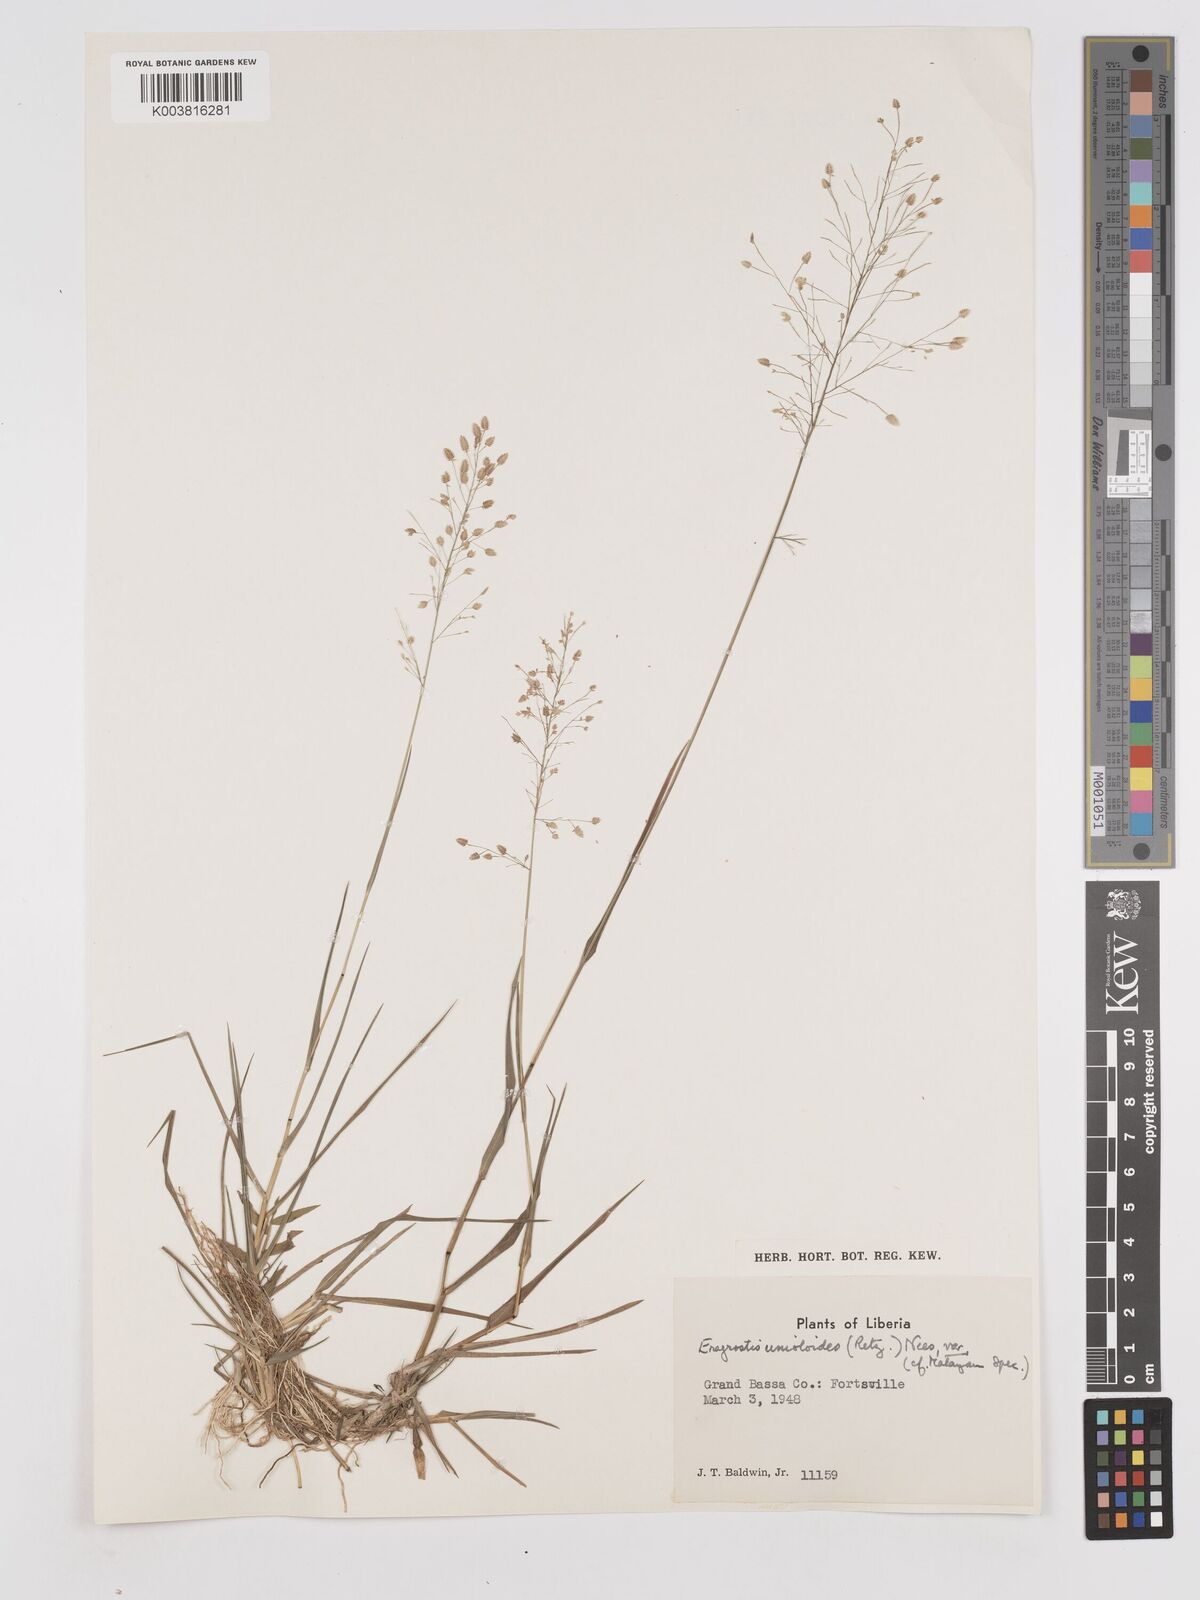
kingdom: Plantae
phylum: Tracheophyta
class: Liliopsida
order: Poales
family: Poaceae
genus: Eragrostis
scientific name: Eragrostis unioloides
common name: Chinese lovegrass
